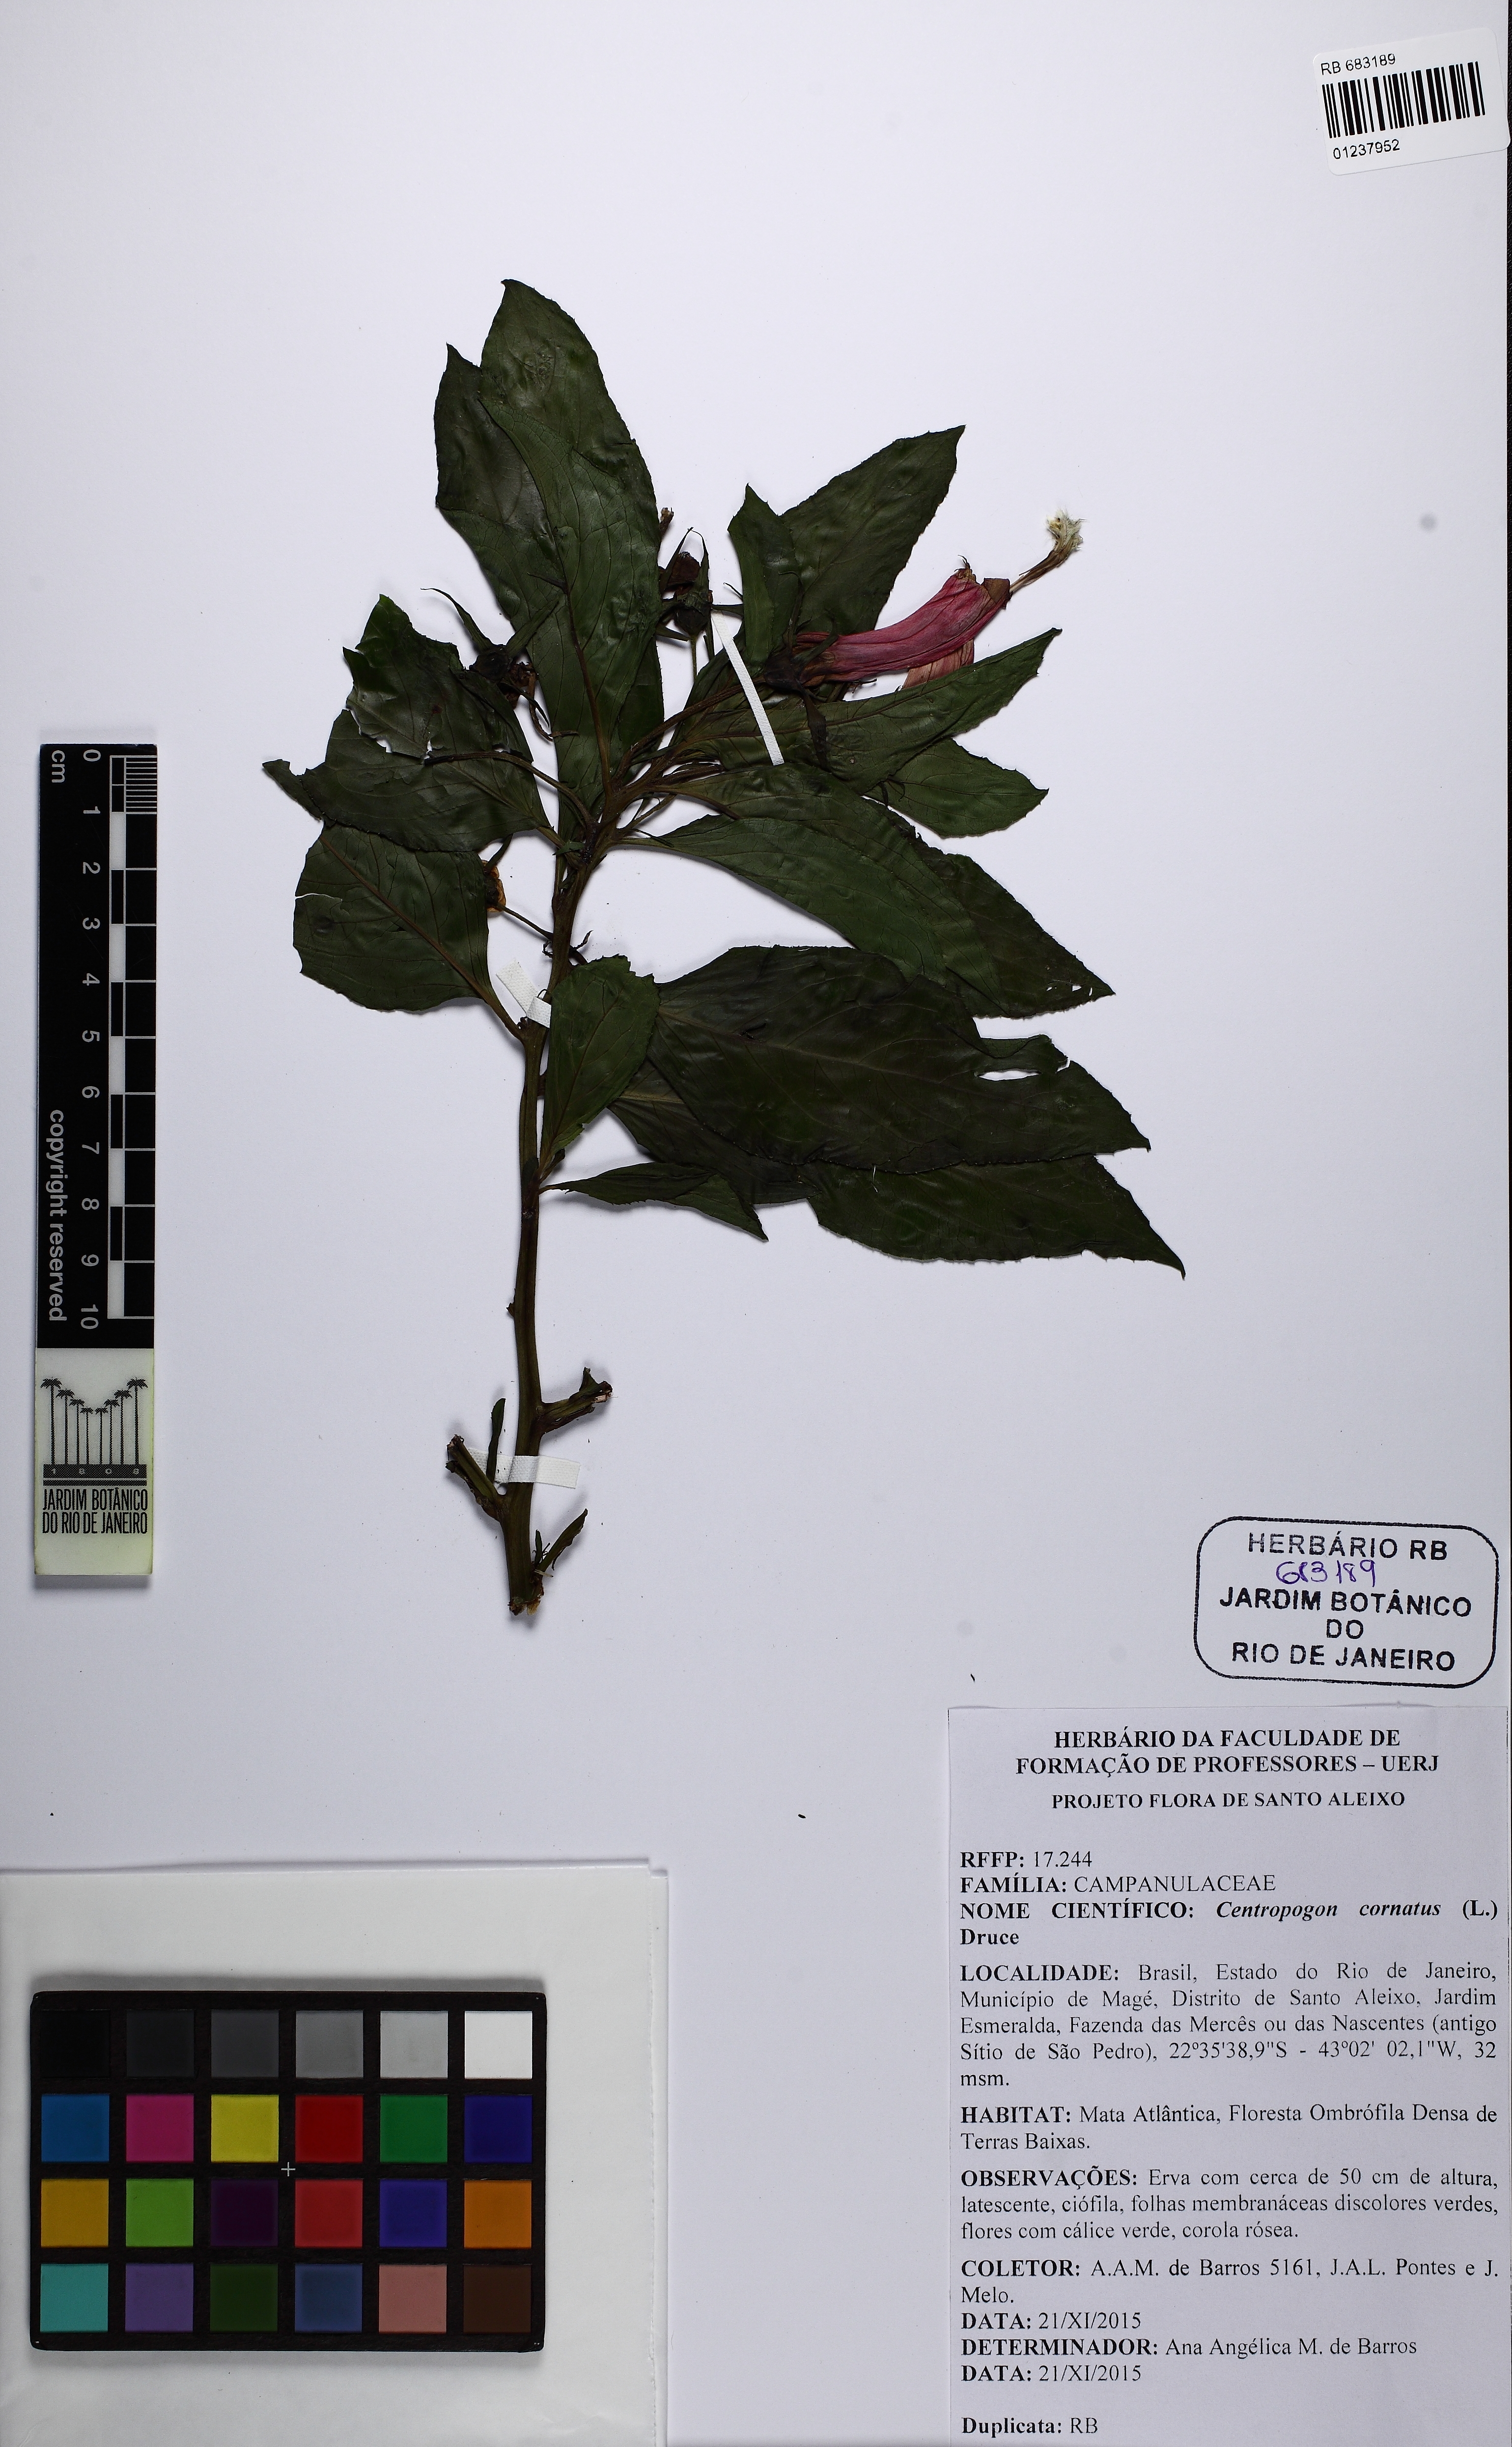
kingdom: Plantae
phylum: Tracheophyta
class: Magnoliopsida
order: Asterales
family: Campanulaceae
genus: Centropogon
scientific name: Centropogon cornutus
